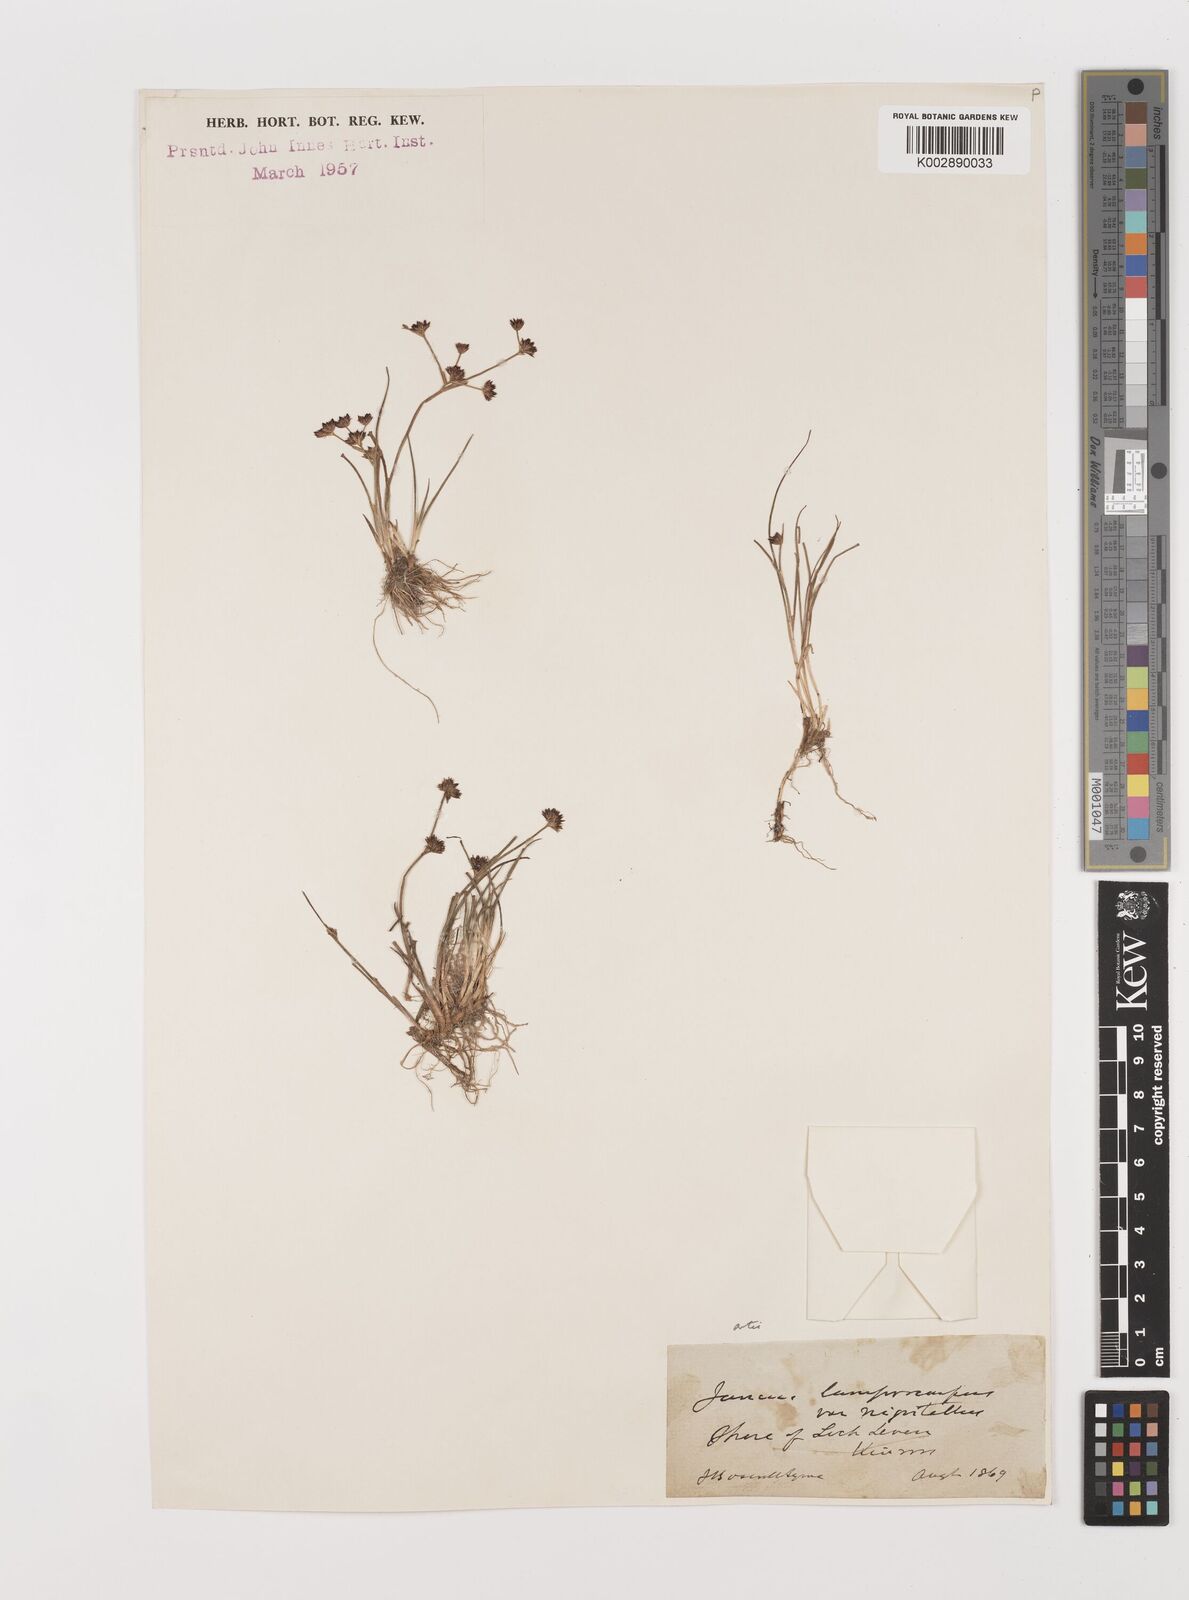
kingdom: Plantae
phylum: Tracheophyta
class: Liliopsida
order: Poales
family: Juncaceae
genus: Juncus
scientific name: Juncus articulatus
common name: Jointed rush
